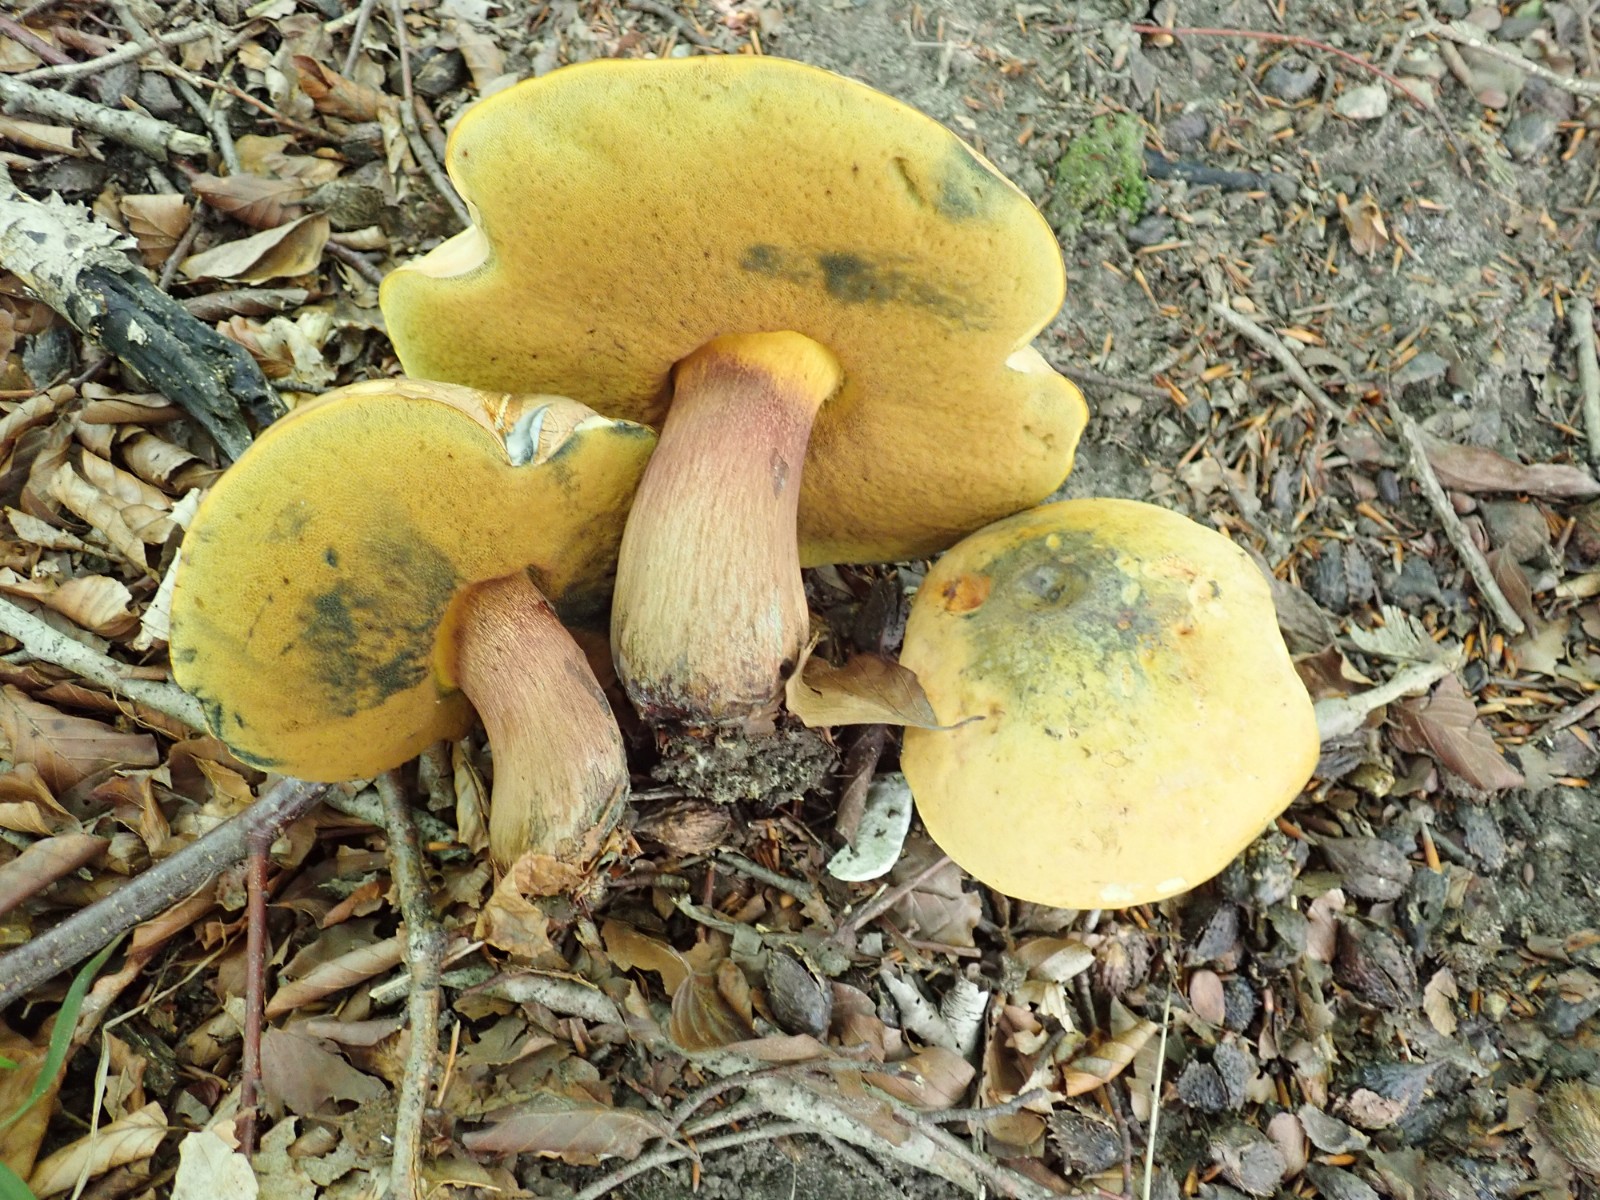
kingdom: Fungi
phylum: Basidiomycota
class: Agaricomycetes
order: Boletales
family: Boletaceae
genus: Suillellus
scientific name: Suillellus luridus
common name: netstokket indigorørhat
